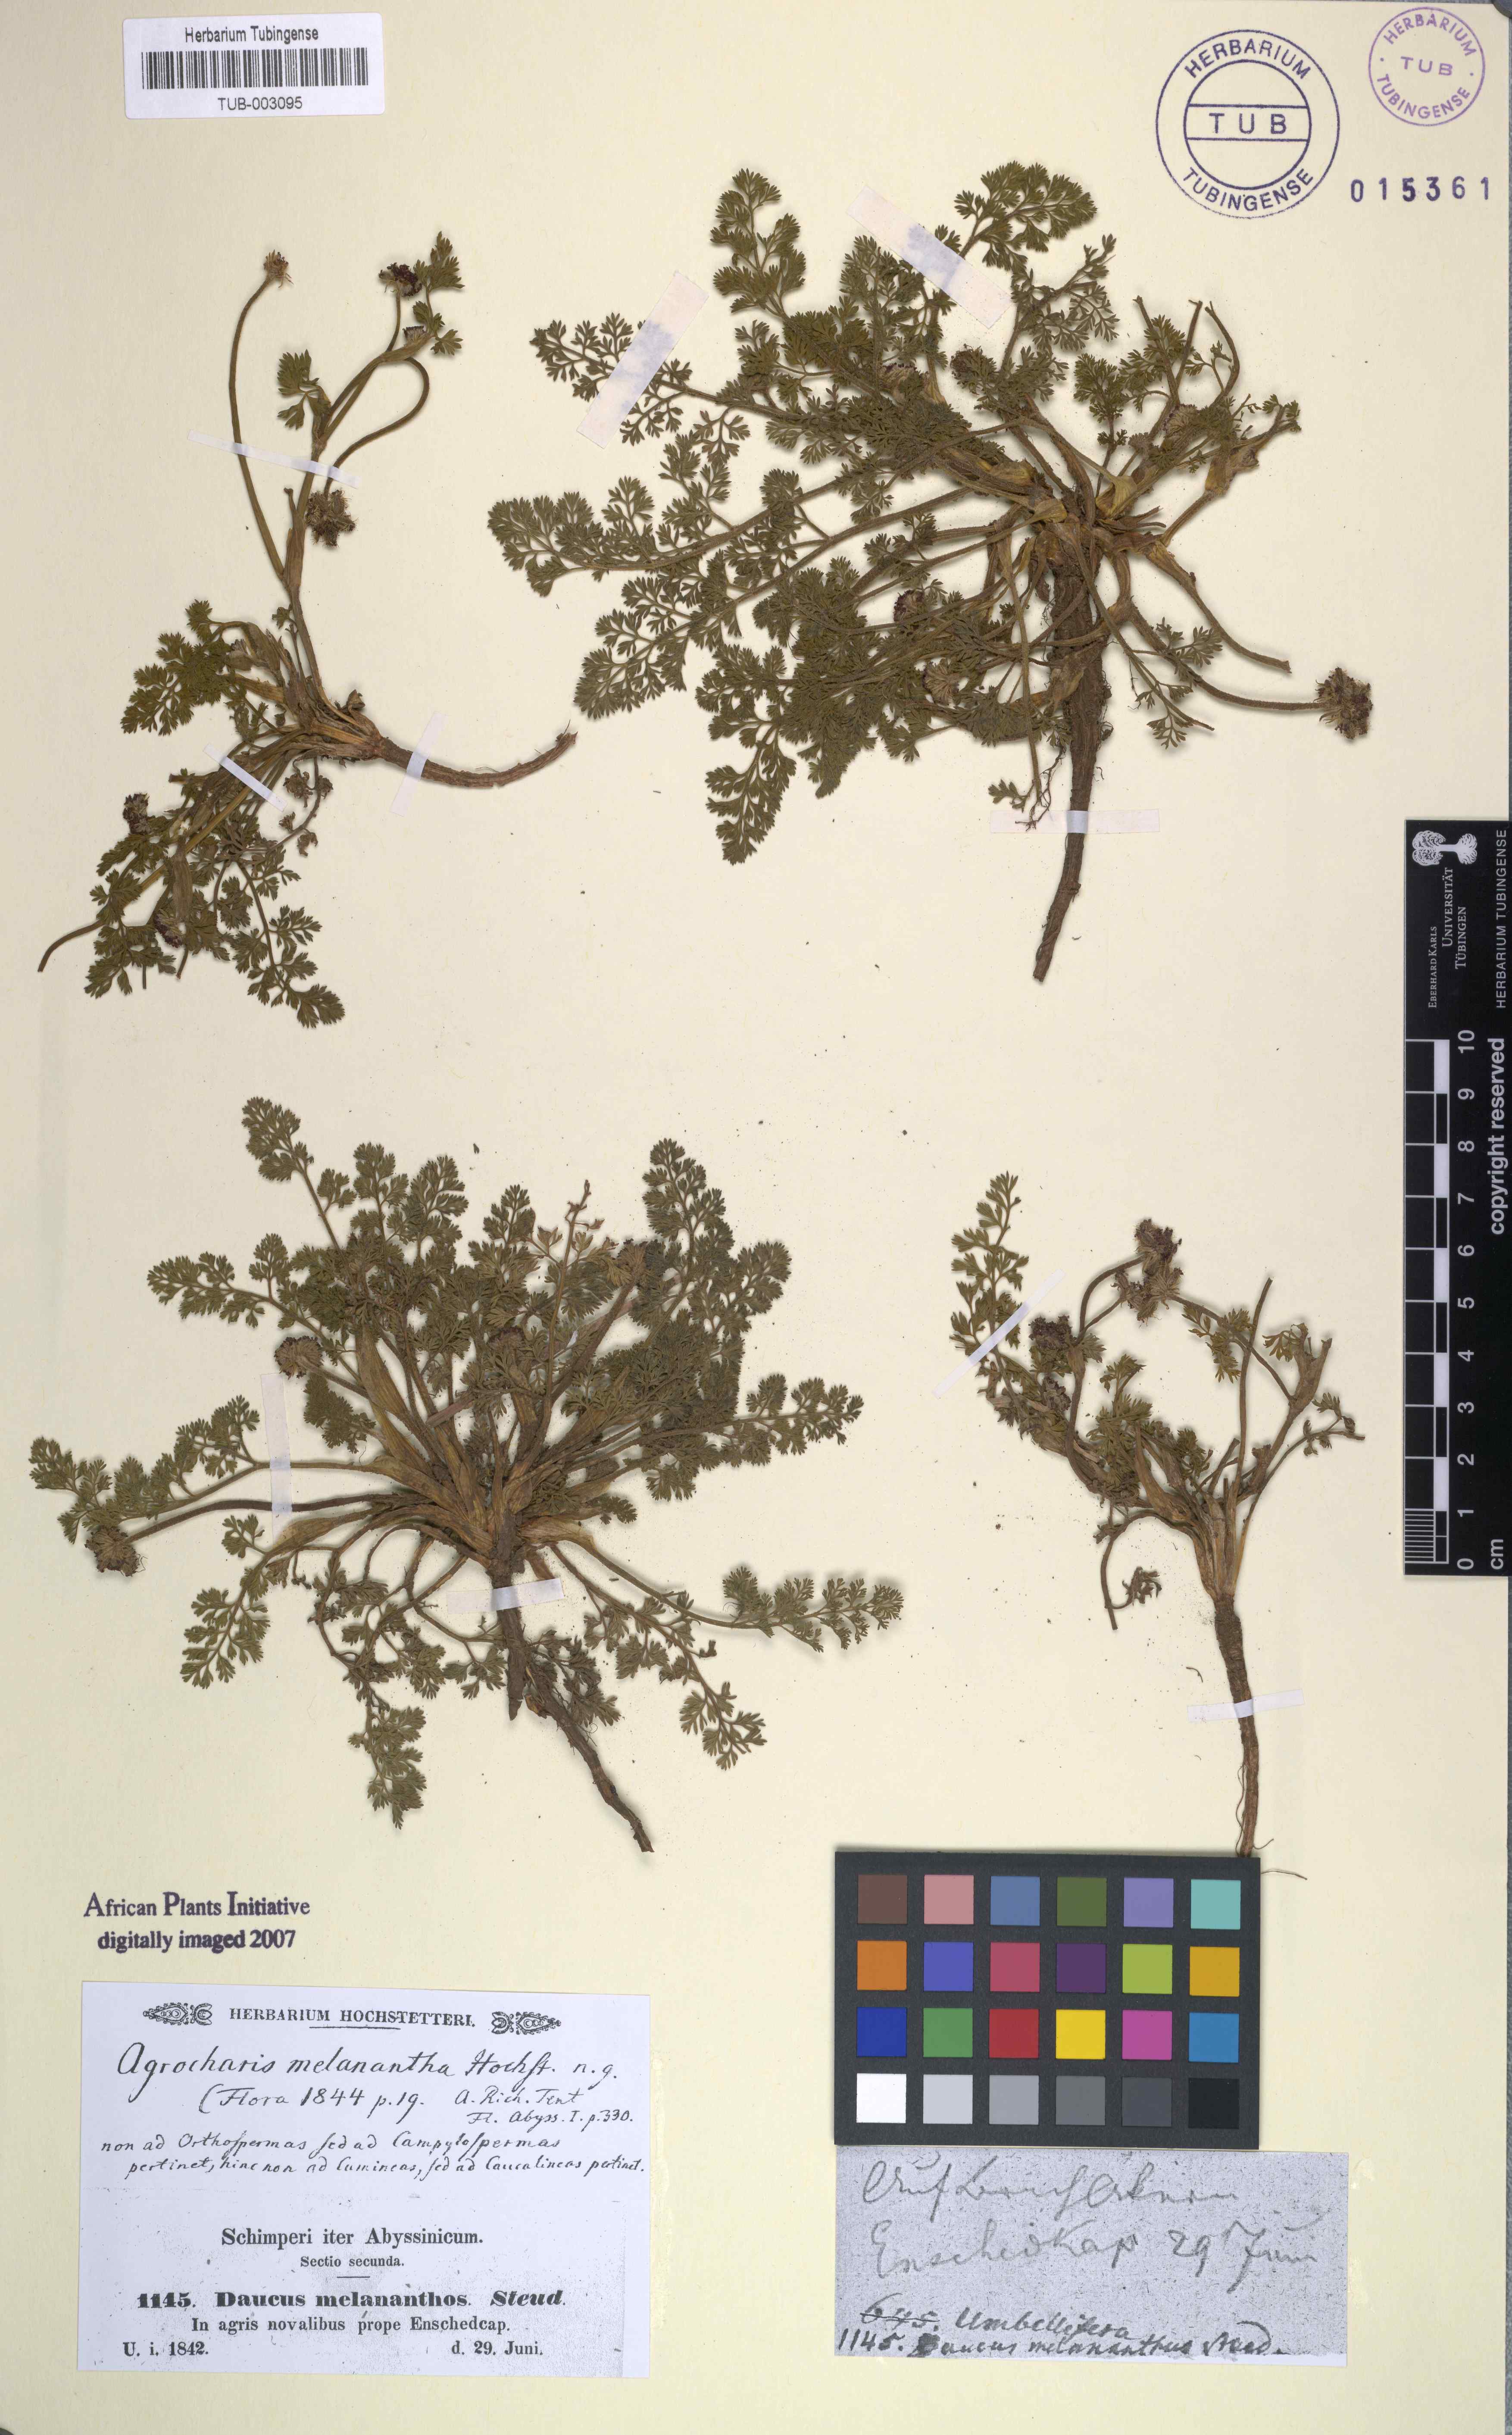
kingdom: Plantae
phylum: Tracheophyta
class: Magnoliopsida
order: Apiales
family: Apiaceae
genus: Daucus
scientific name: Daucus melananthus
